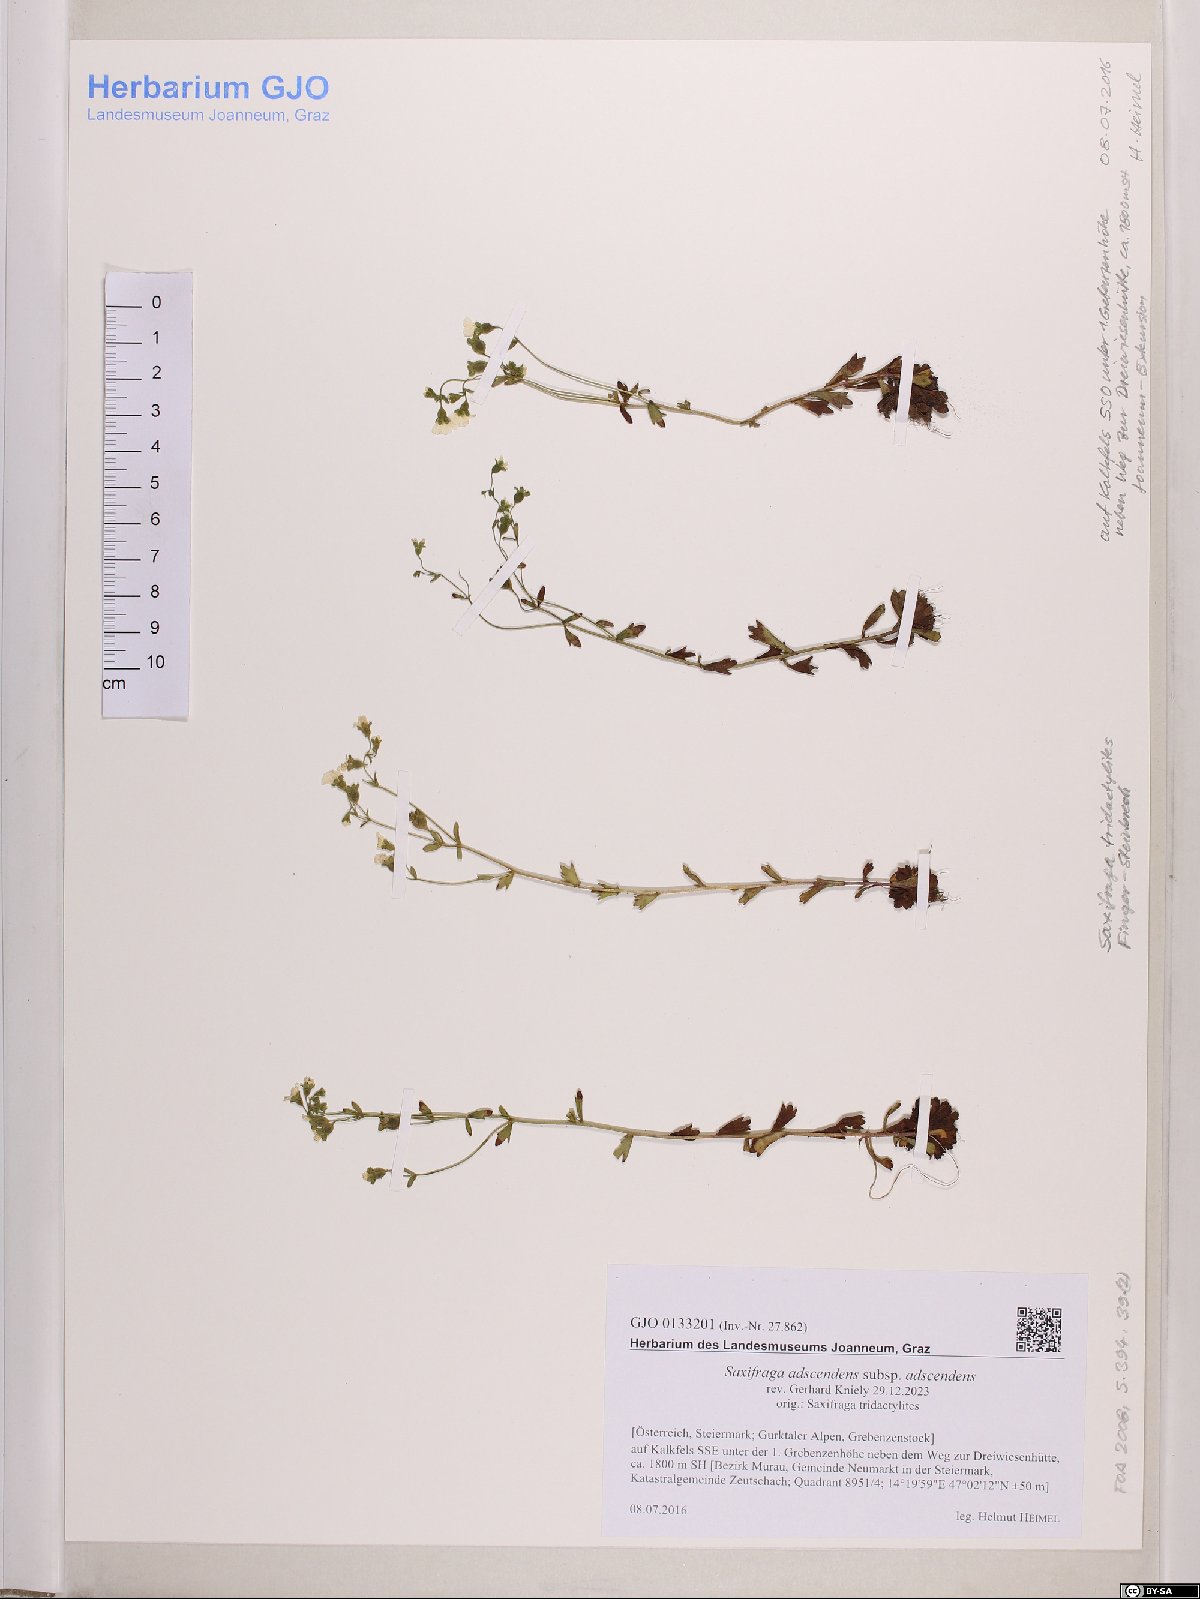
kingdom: Plantae
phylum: Tracheophyta
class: Magnoliopsida
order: Saxifragales
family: Saxifragaceae
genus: Saxifraga
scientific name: Saxifraga adscendens
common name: Ascending saxifrage
